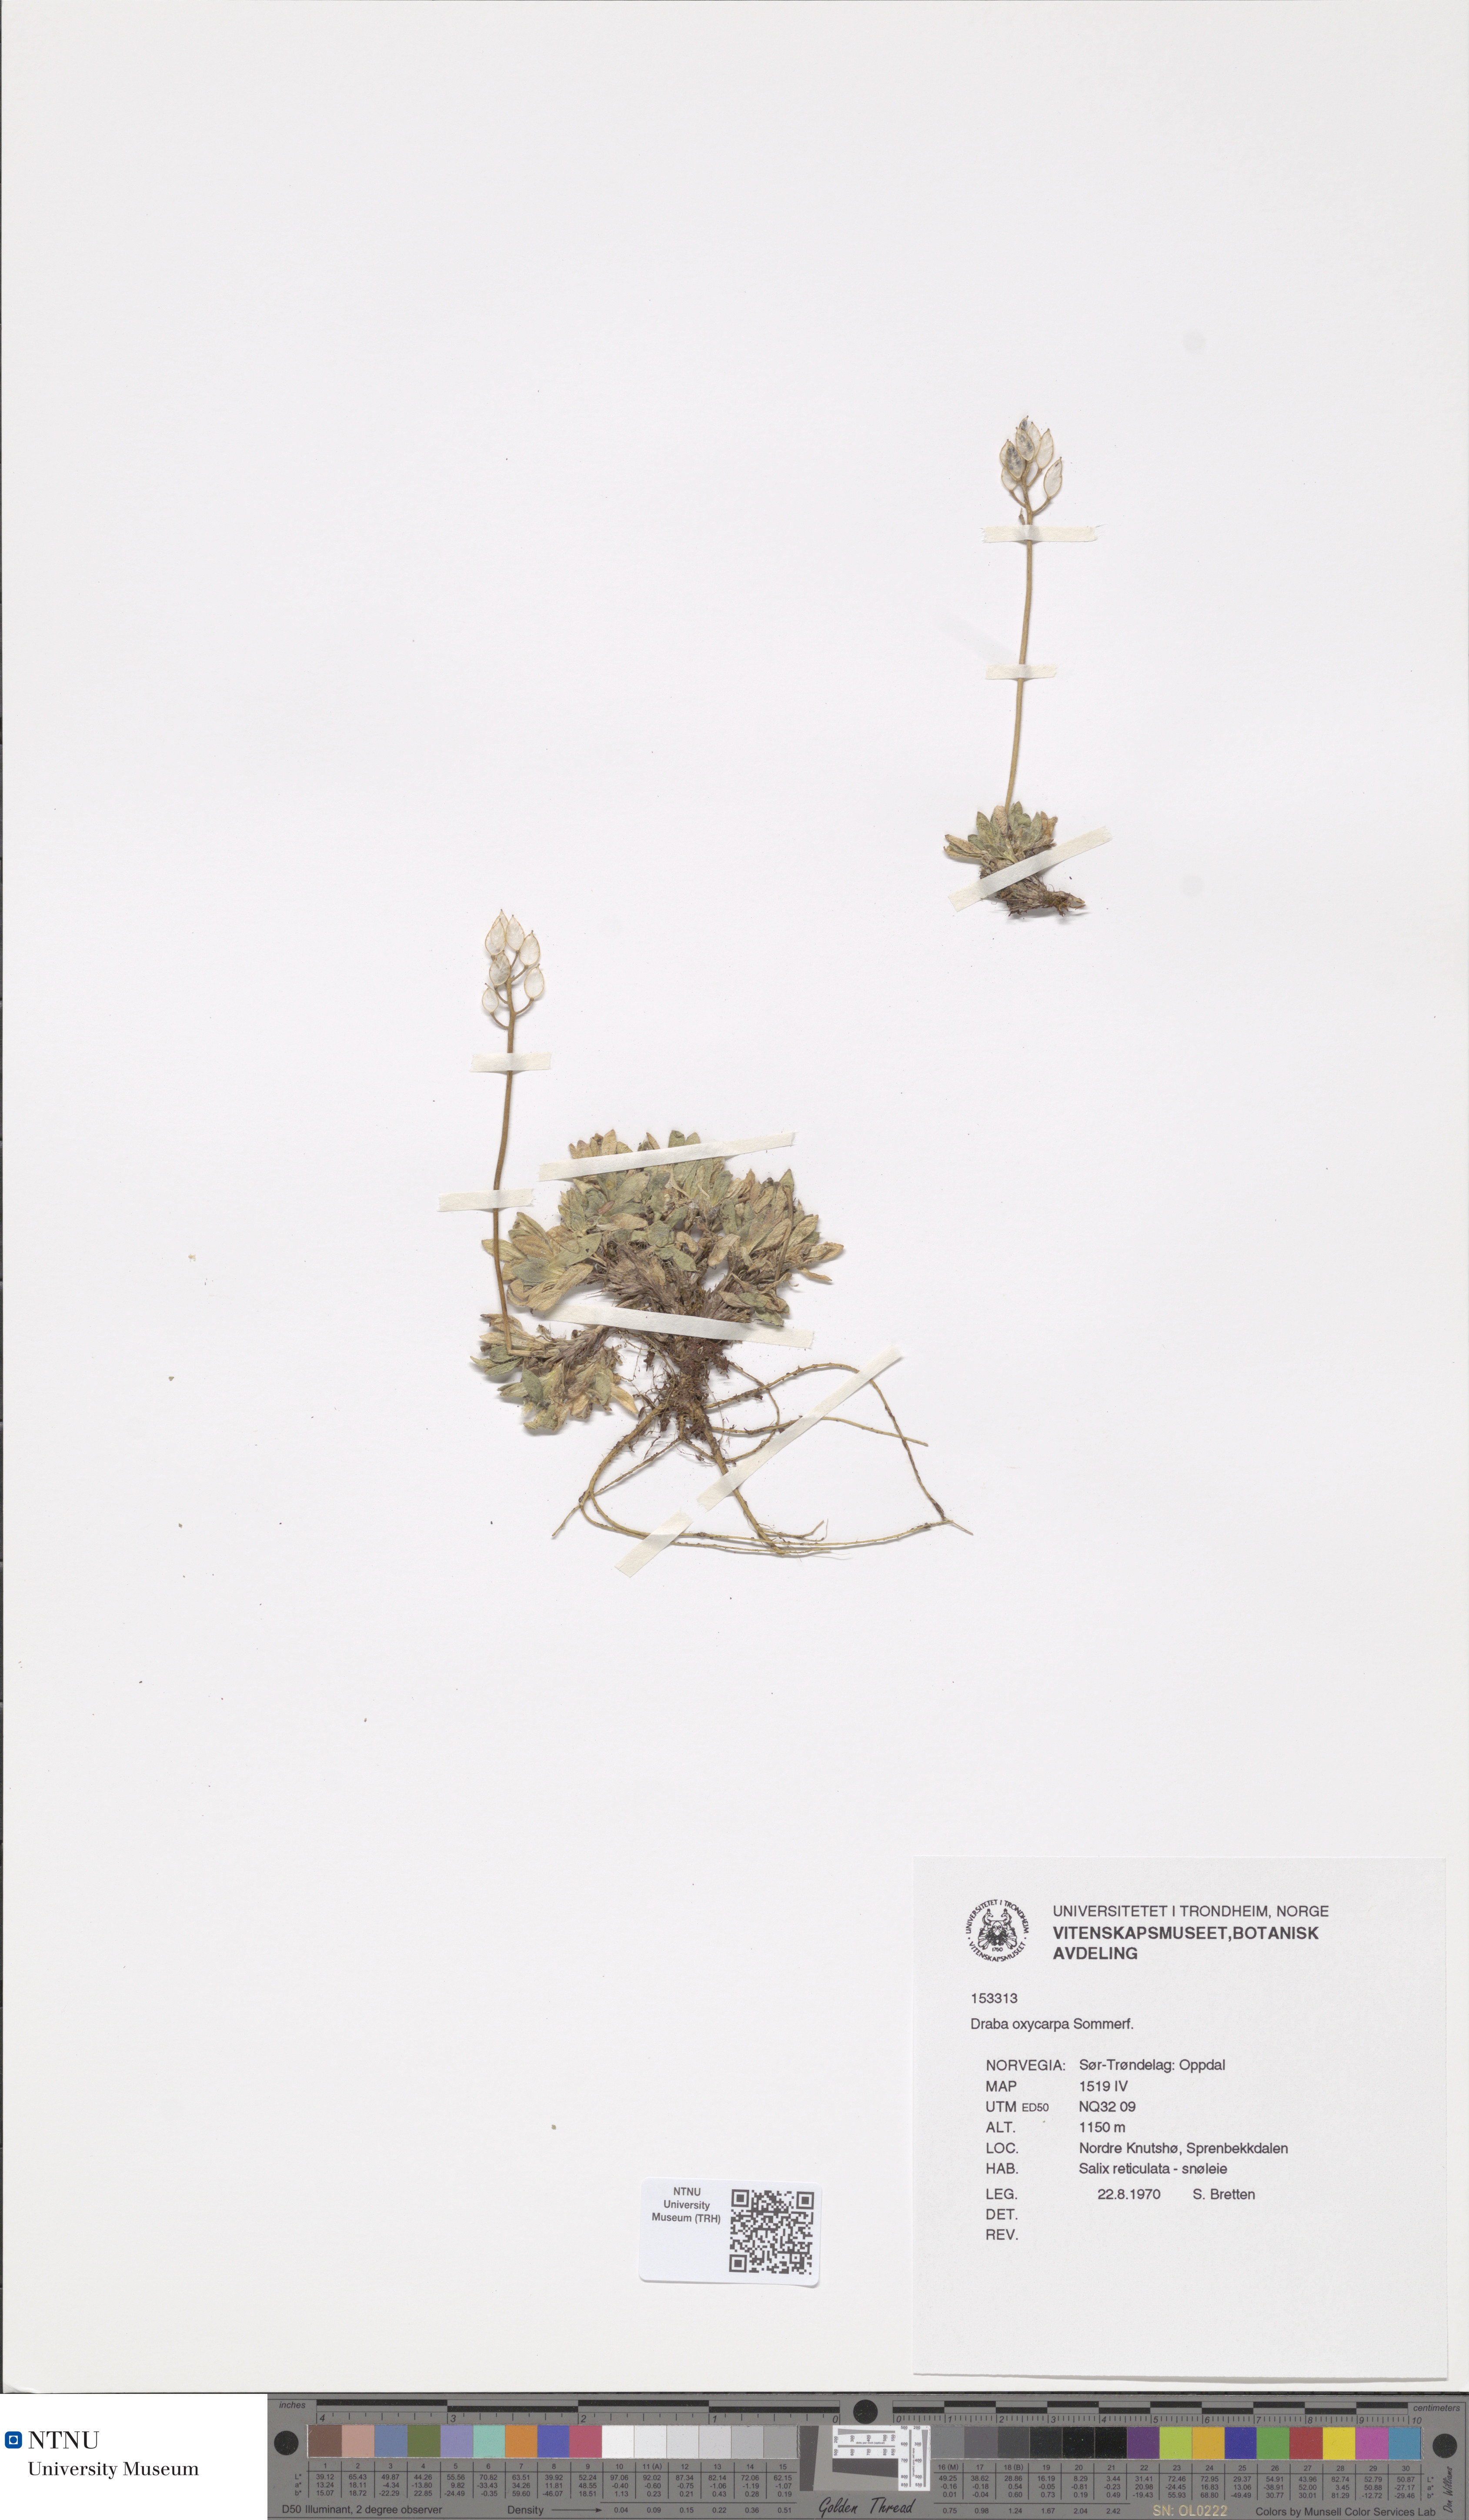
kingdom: Plantae
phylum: Tracheophyta
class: Magnoliopsida
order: Brassicales
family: Brassicaceae
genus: Draba
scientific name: Draba oxycarpa
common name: Sharp-fruited whitlow-grass
